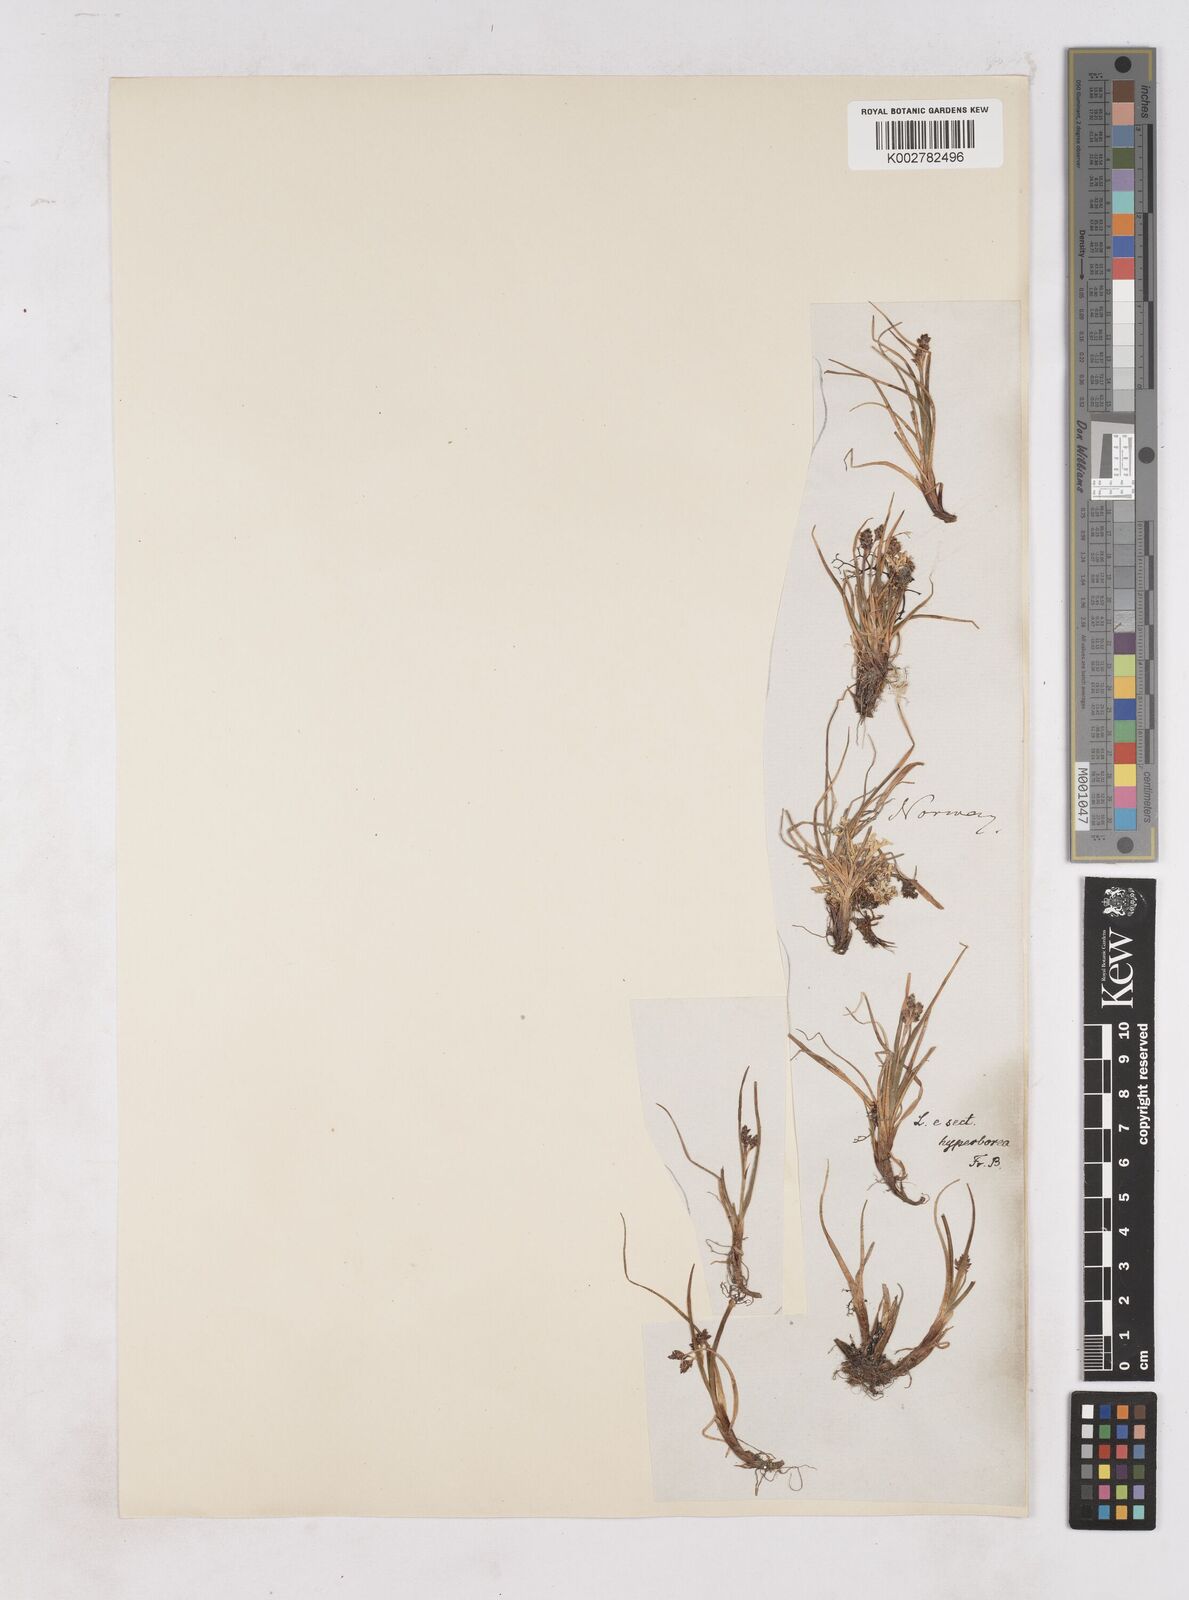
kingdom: Plantae
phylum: Tracheophyta
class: Liliopsida
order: Poales
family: Juncaceae
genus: Luzula
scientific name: Luzula arcuata
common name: Curved wood-rush
